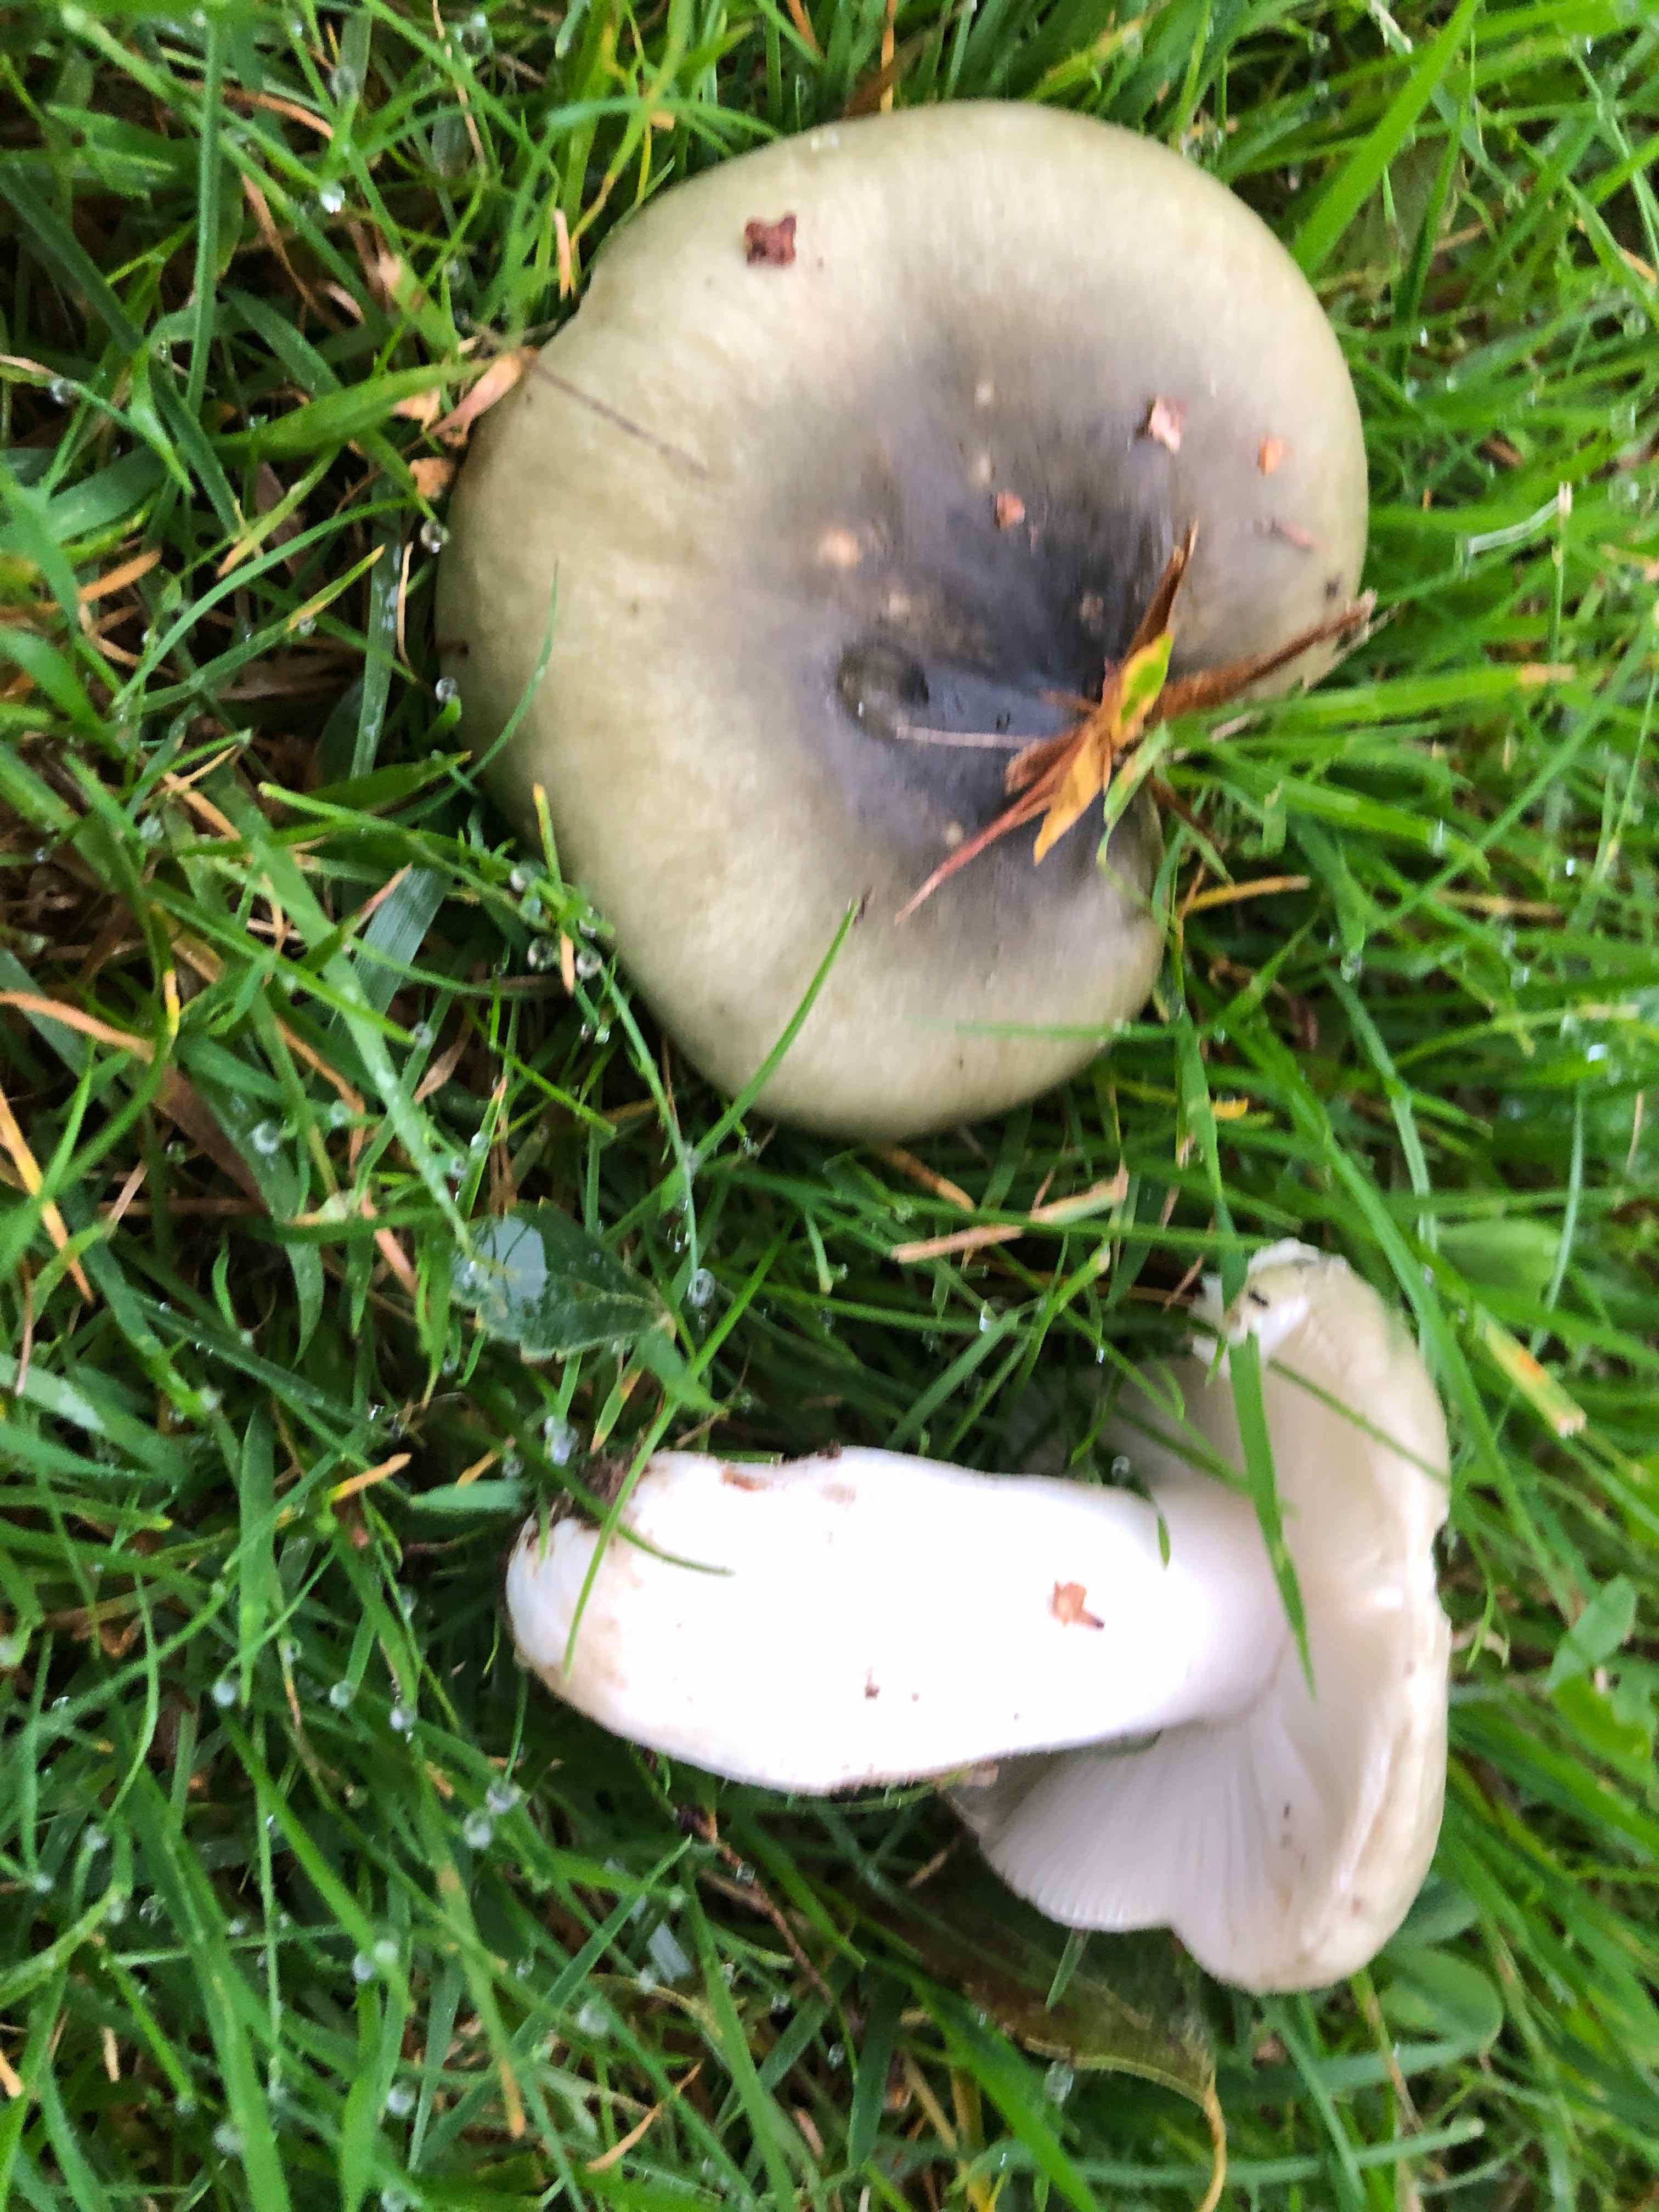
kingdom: Fungi
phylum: Basidiomycota
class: Agaricomycetes
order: Russulales
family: Russulaceae
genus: Russula
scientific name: Russula aeruginea
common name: græsgrøn skørhat
